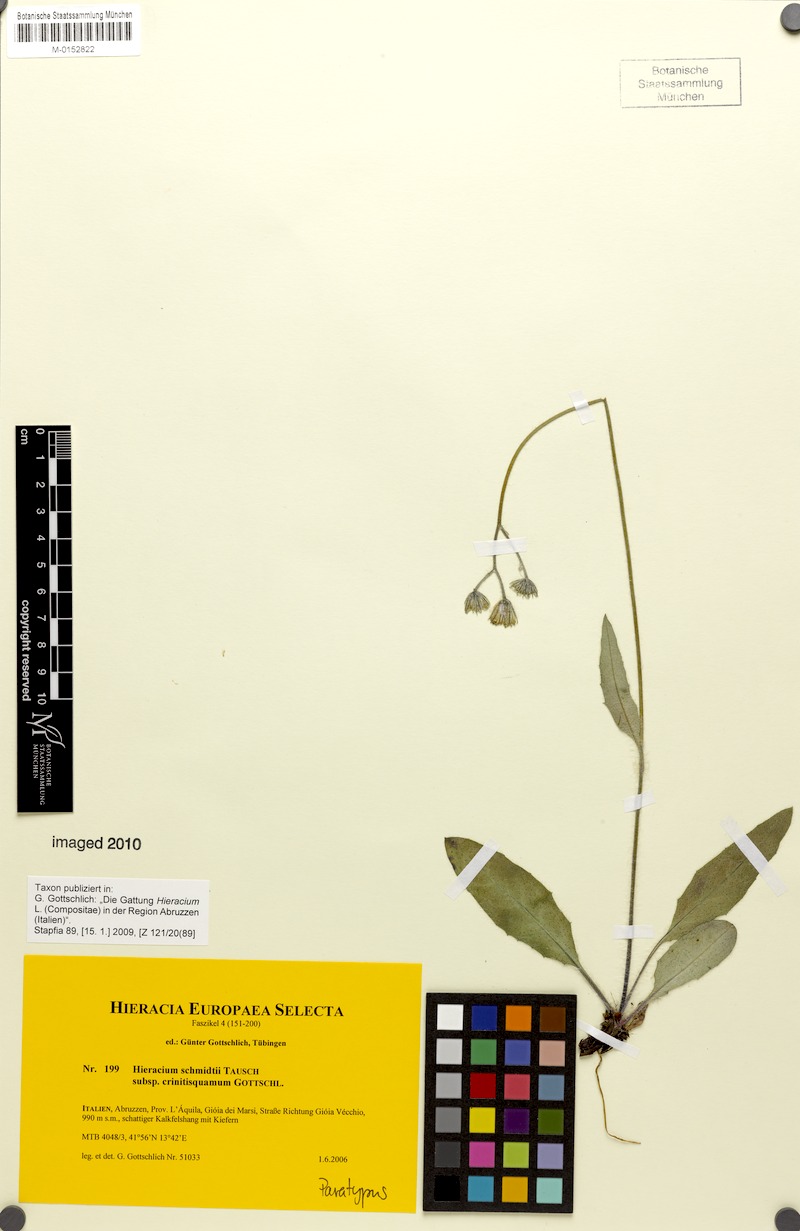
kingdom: Plantae
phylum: Tracheophyta
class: Magnoliopsida
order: Asterales
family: Asteraceae
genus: Hieracium
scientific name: Hieracium schmidtii
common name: Schmidt's hawkweed
